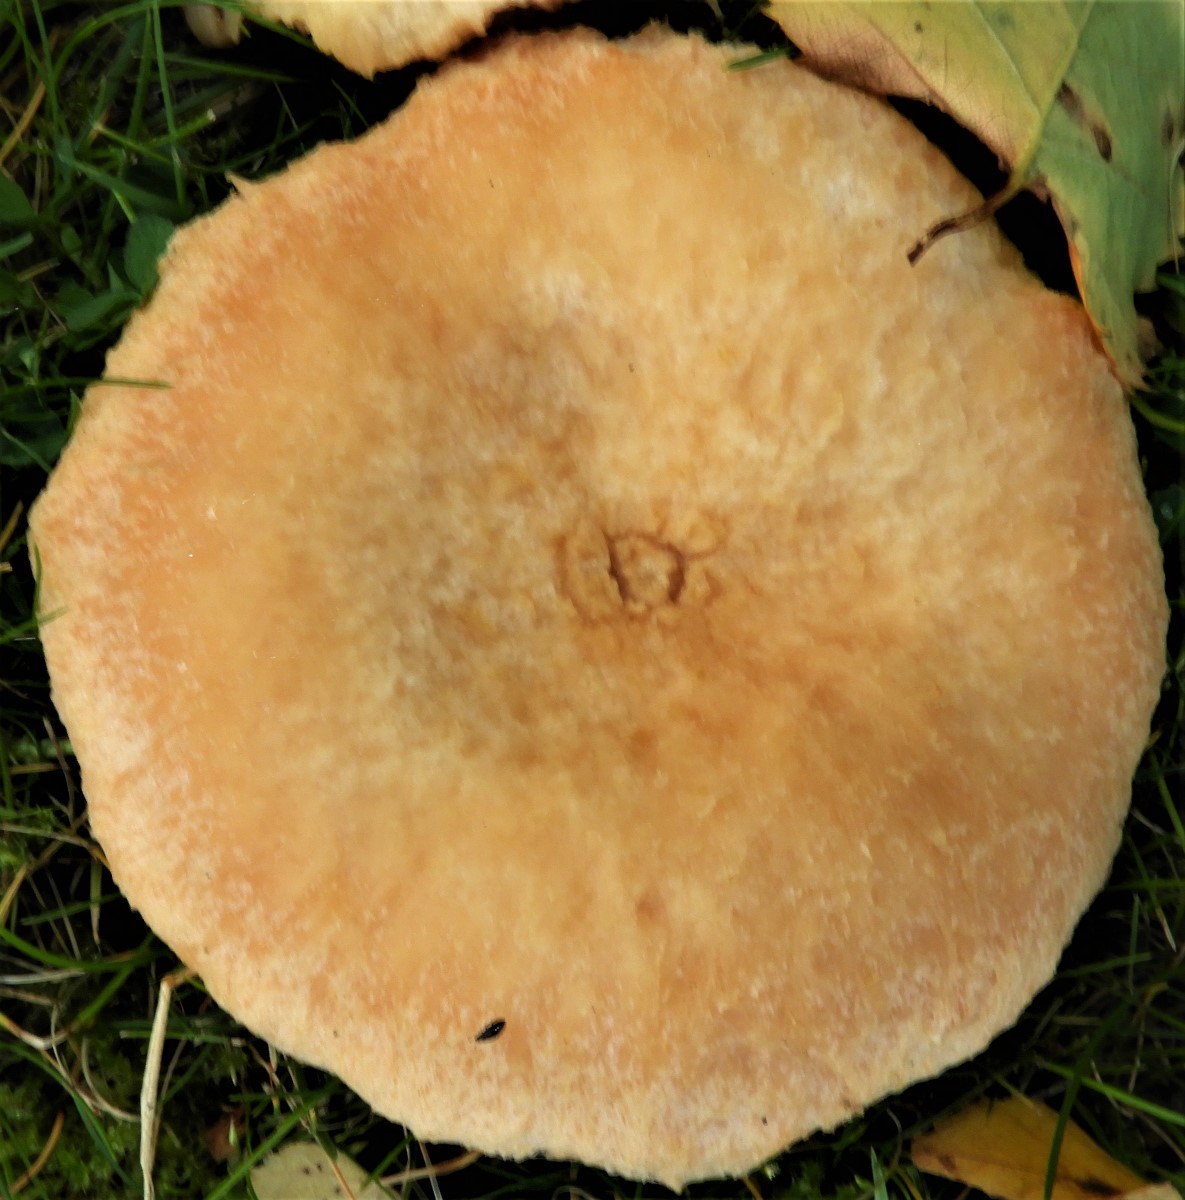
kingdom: Fungi
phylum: Ascomycota
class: Sordariomycetes
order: Hypocreales
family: Hypocreaceae
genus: Hypomyces
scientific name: Hypomyces spadiceus
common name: mælkeskæg-snylteskorpe
